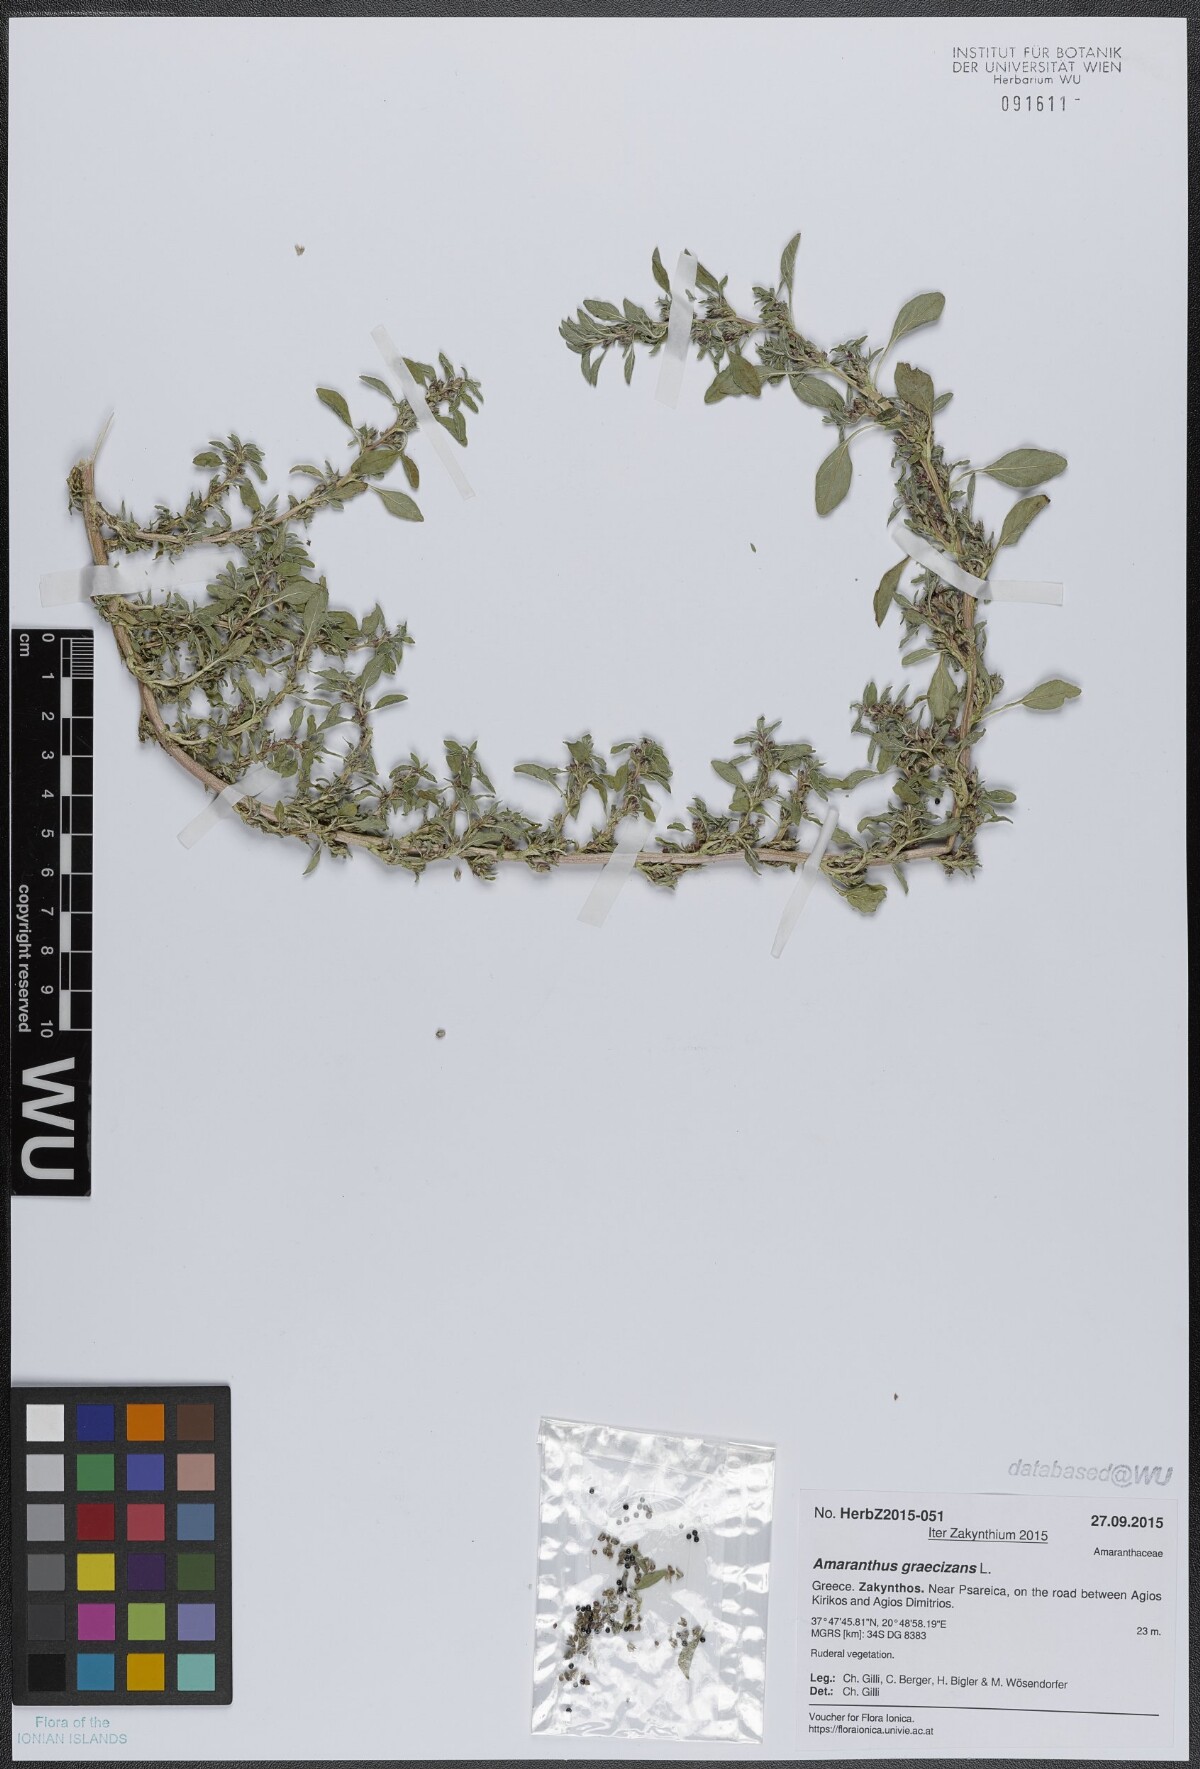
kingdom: Plantae
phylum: Tracheophyta
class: Magnoliopsida
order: Caryophyllales
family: Amaranthaceae
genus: Amaranthus
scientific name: Amaranthus graecizans
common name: Mediterranean amaranth
